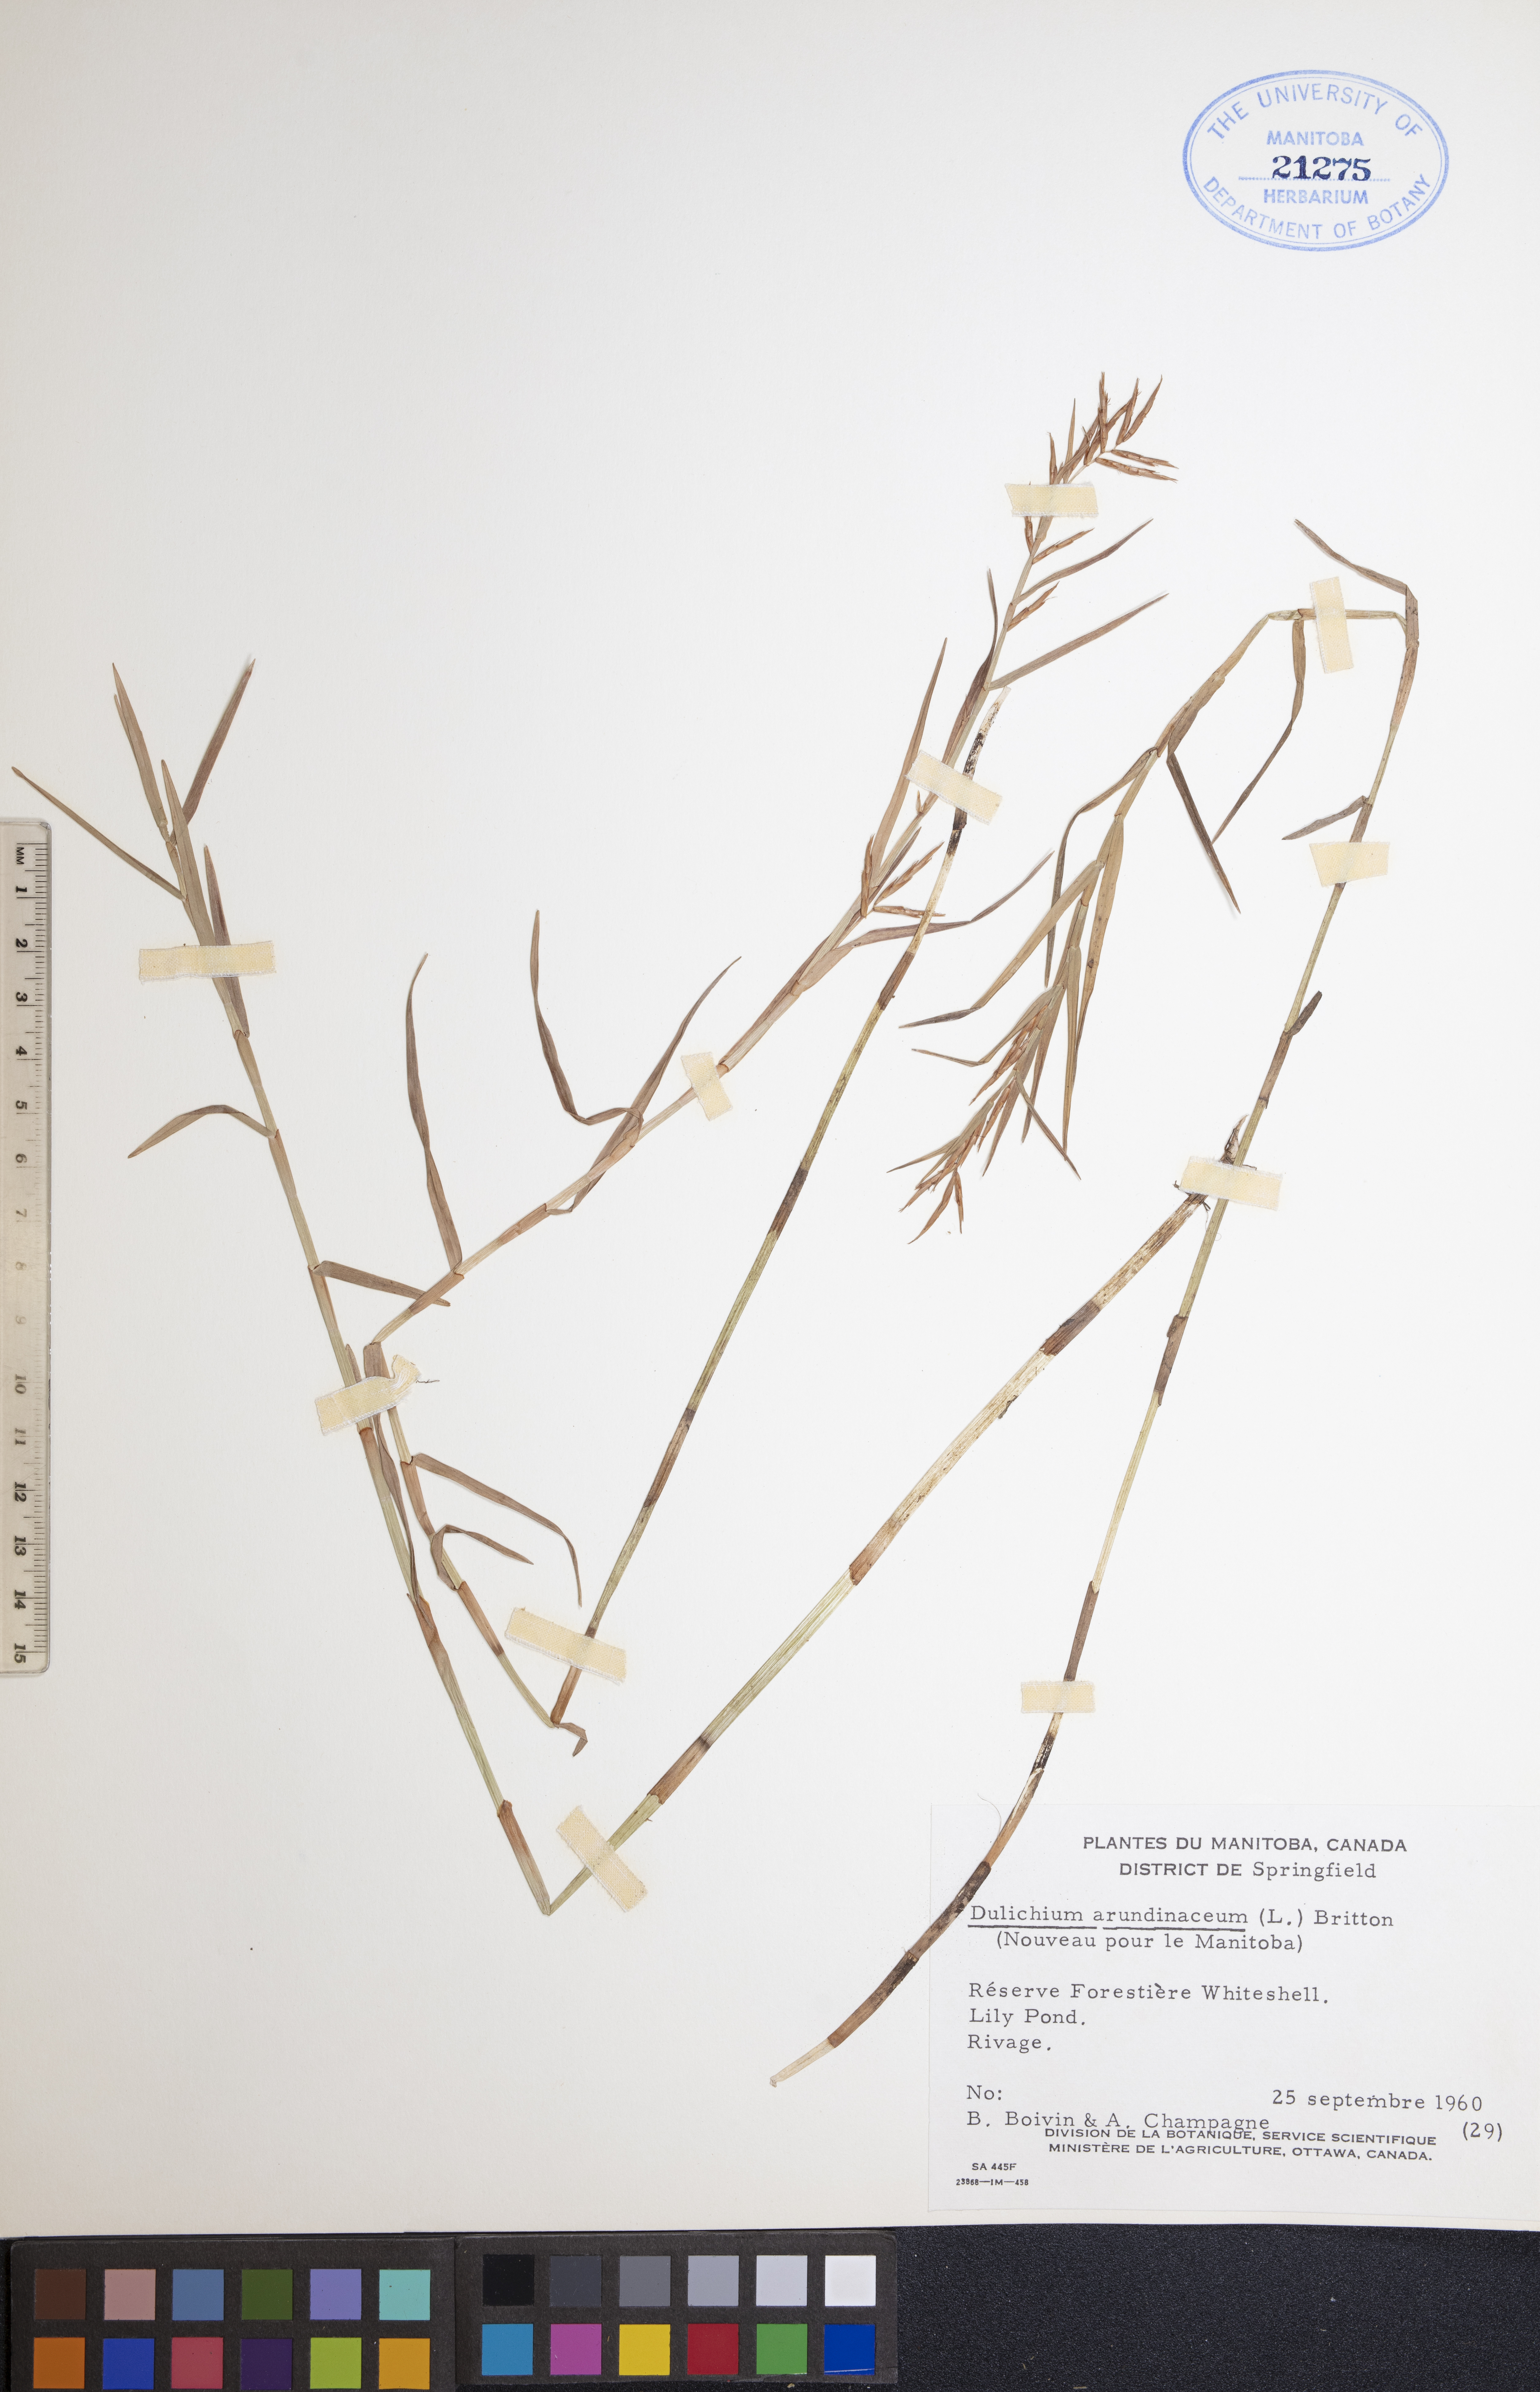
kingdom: Plantae
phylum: Tracheophyta
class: Liliopsida
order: Poales
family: Cyperaceae
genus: Dulichium
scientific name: Dulichium arundinaceum
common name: Three-way sedge
